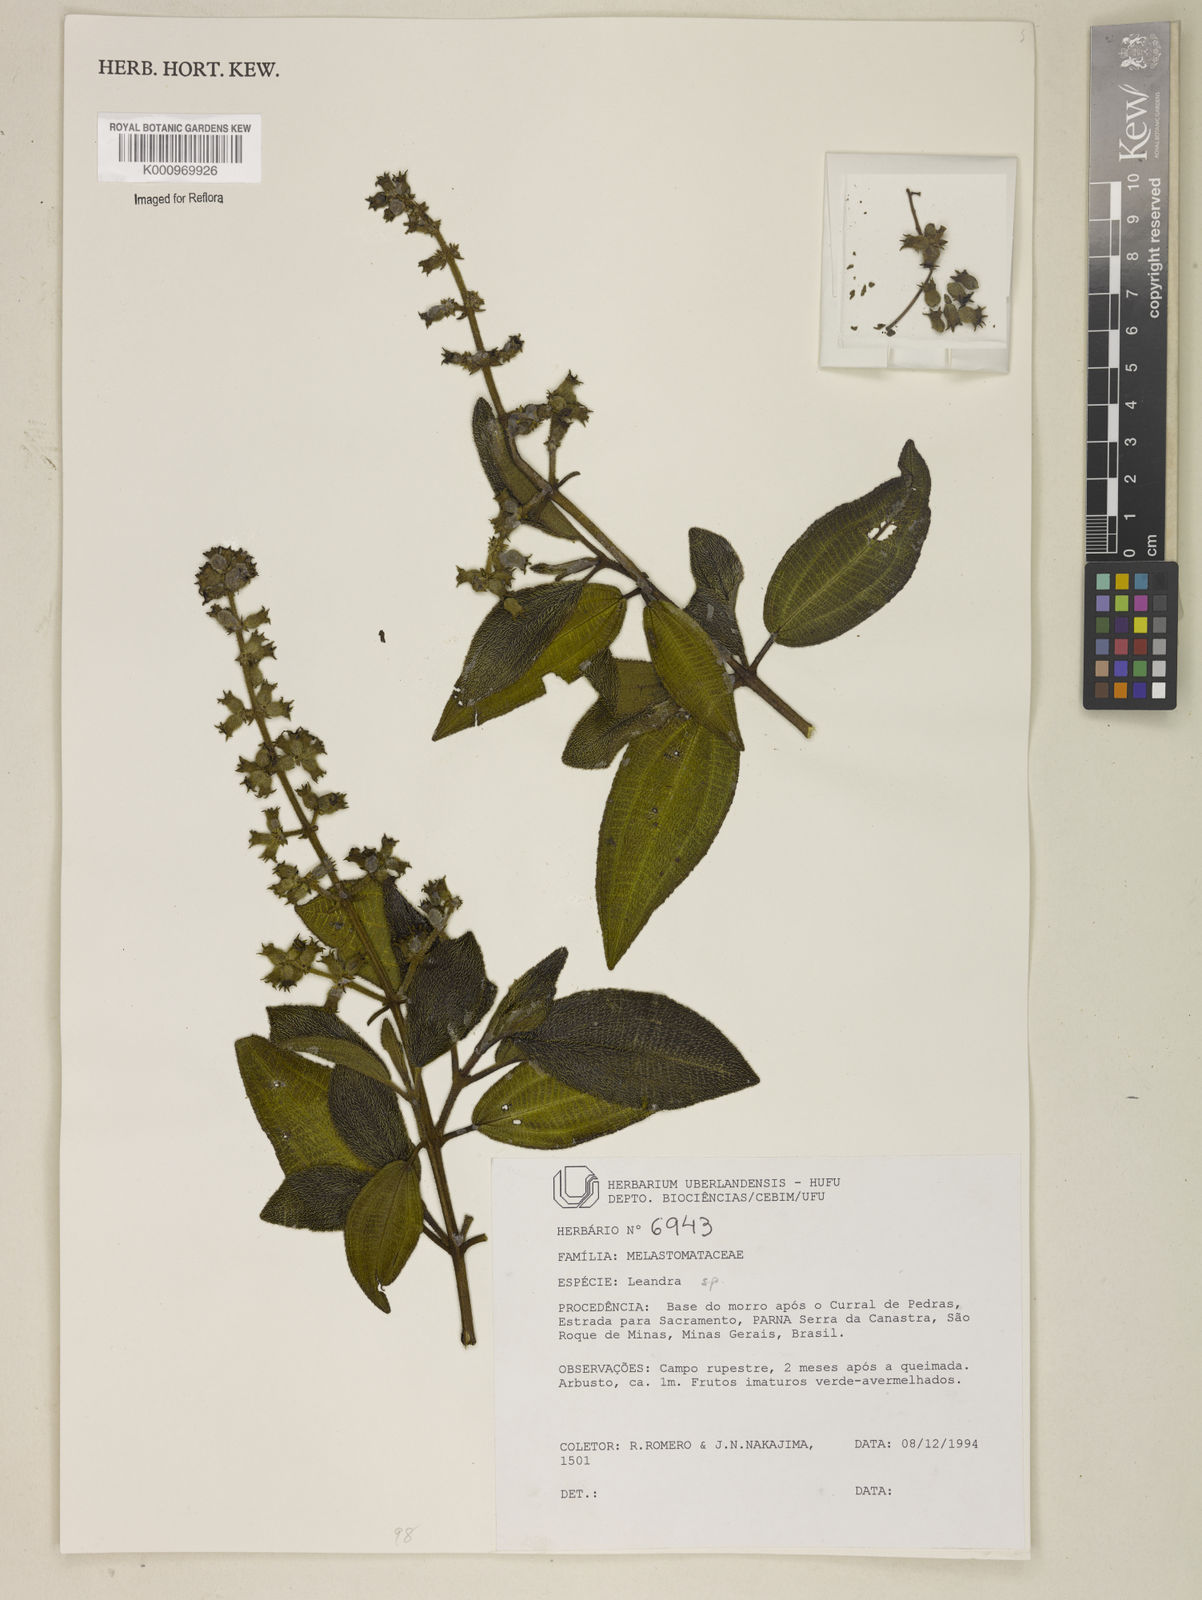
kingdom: Plantae
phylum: Tracheophyta
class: Magnoliopsida
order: Myrtales
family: Melastomataceae
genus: Miconia
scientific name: Miconia
